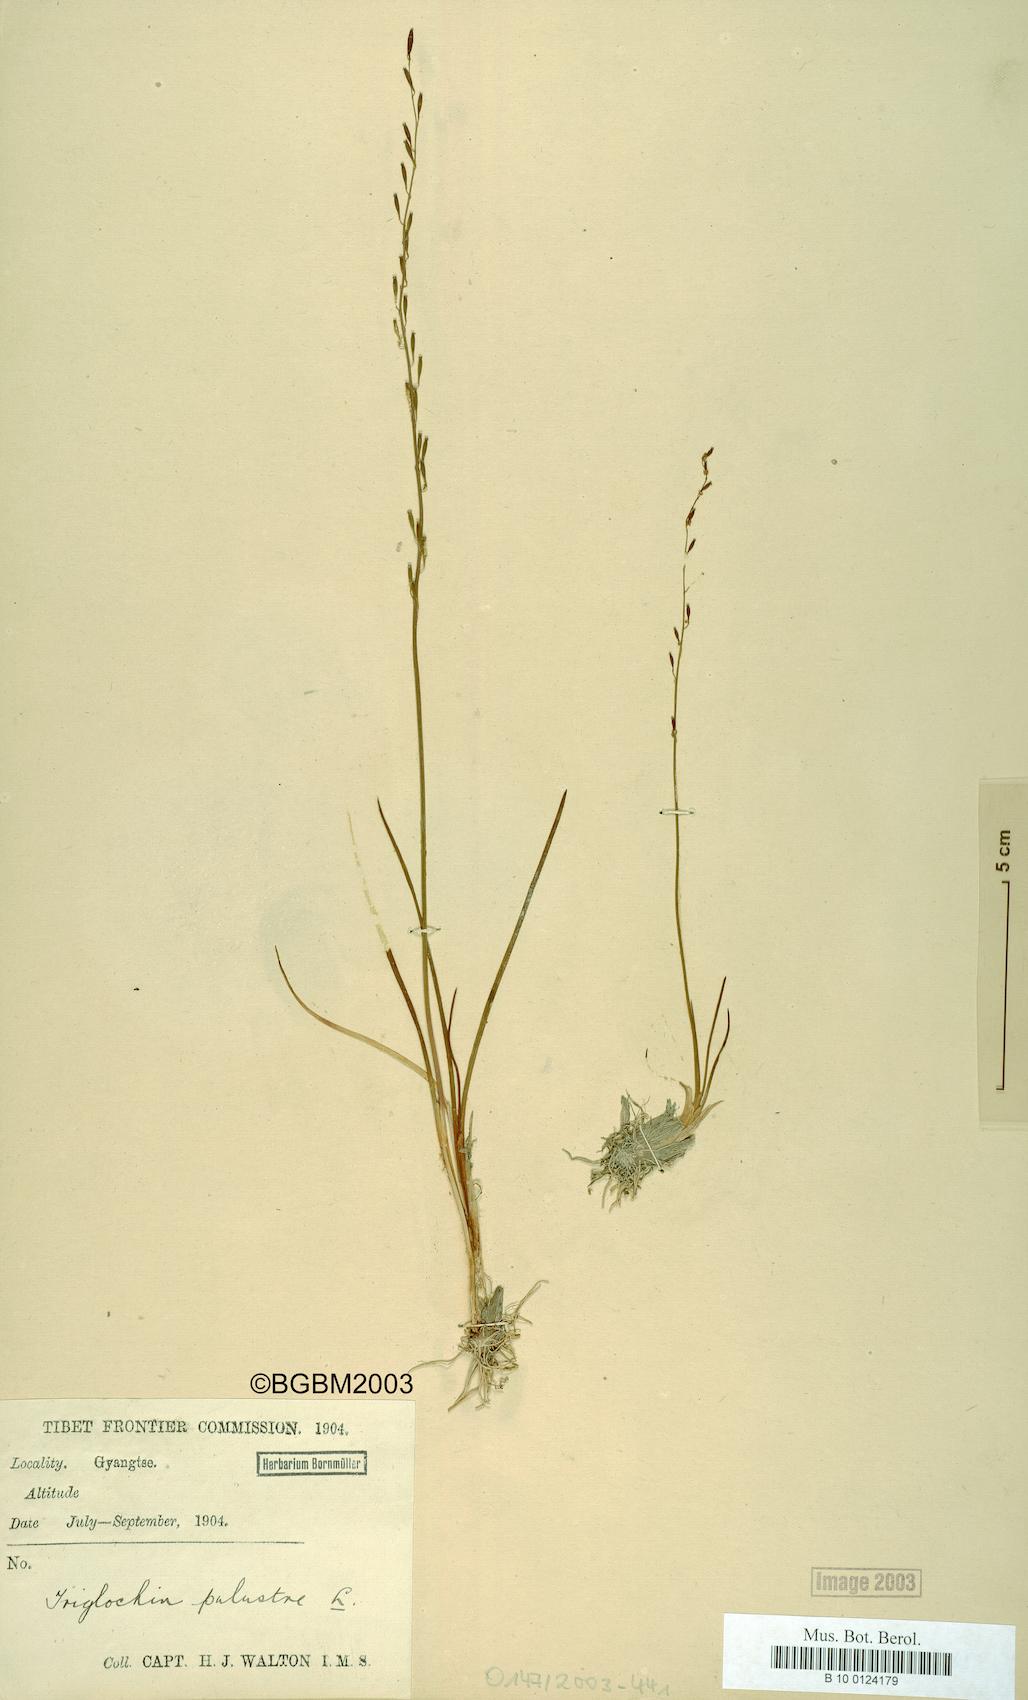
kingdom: Plantae
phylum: Tracheophyta
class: Liliopsida
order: Alismatales
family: Juncaginaceae
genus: Triglochin
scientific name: Triglochin palustris
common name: Marsh arrowgrass
